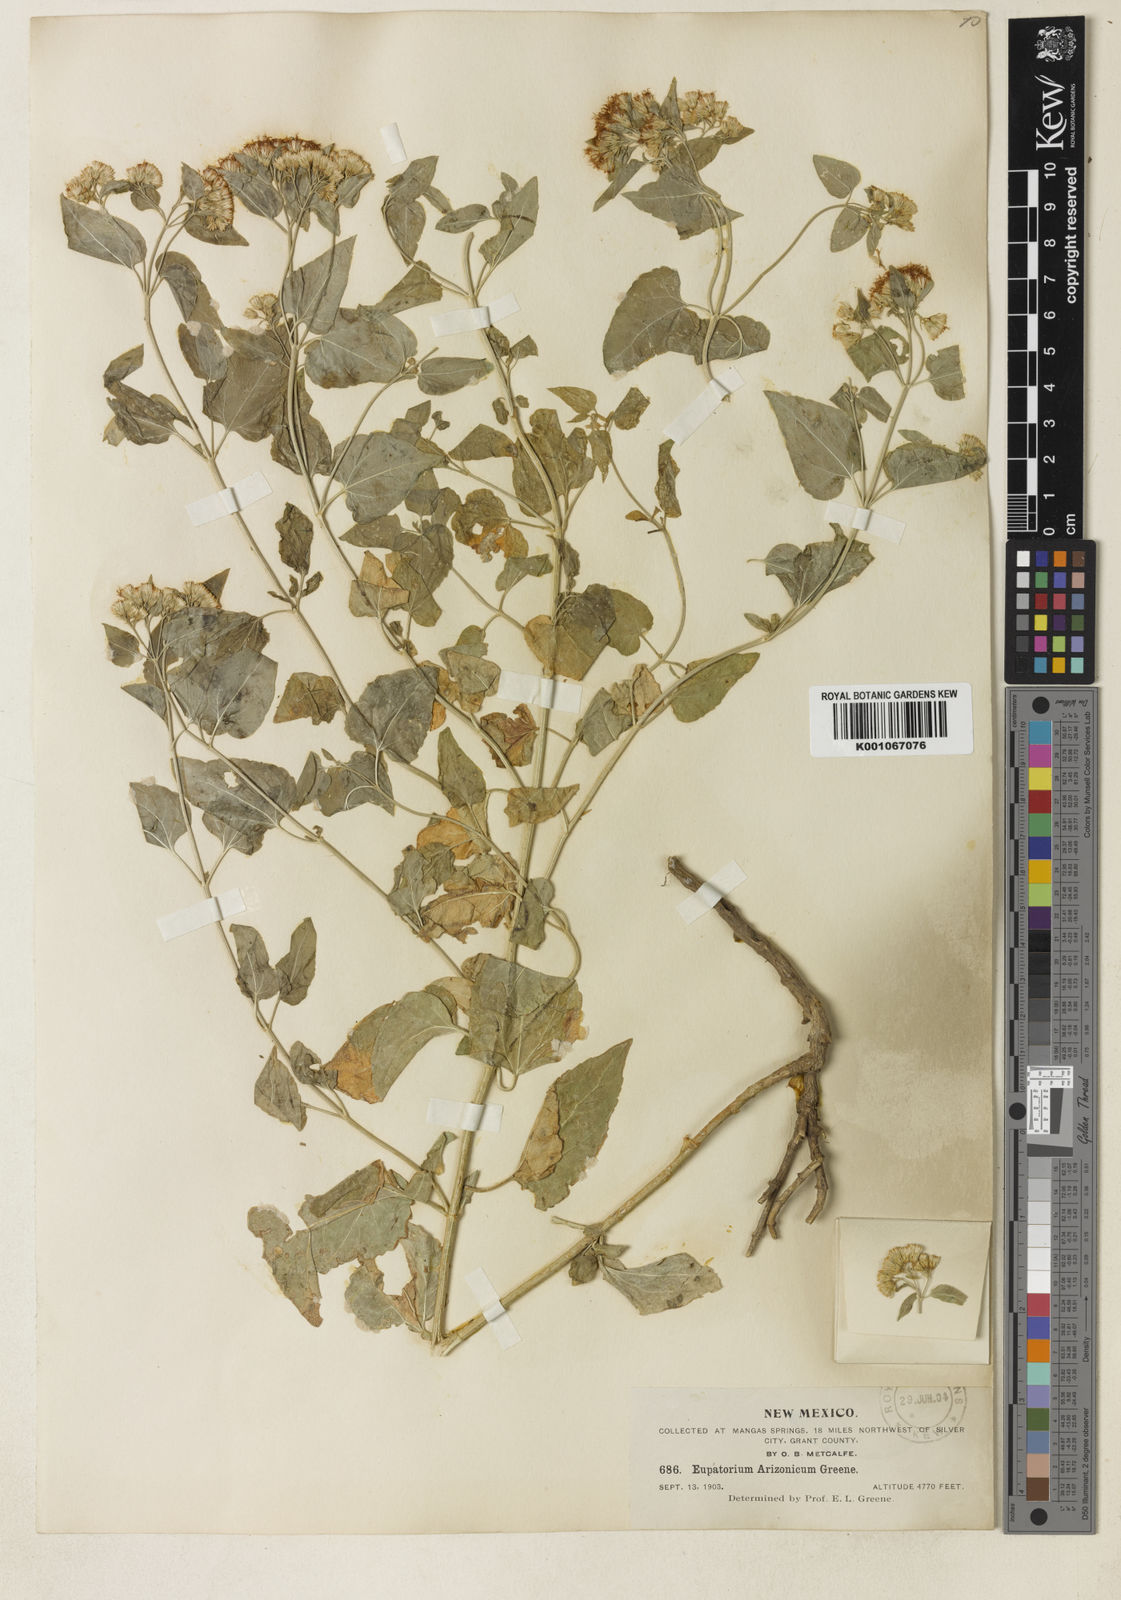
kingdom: Plantae
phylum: Tracheophyta
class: Magnoliopsida
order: Asterales
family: Asteraceae
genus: Ageratina
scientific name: Ageratina herbacea
